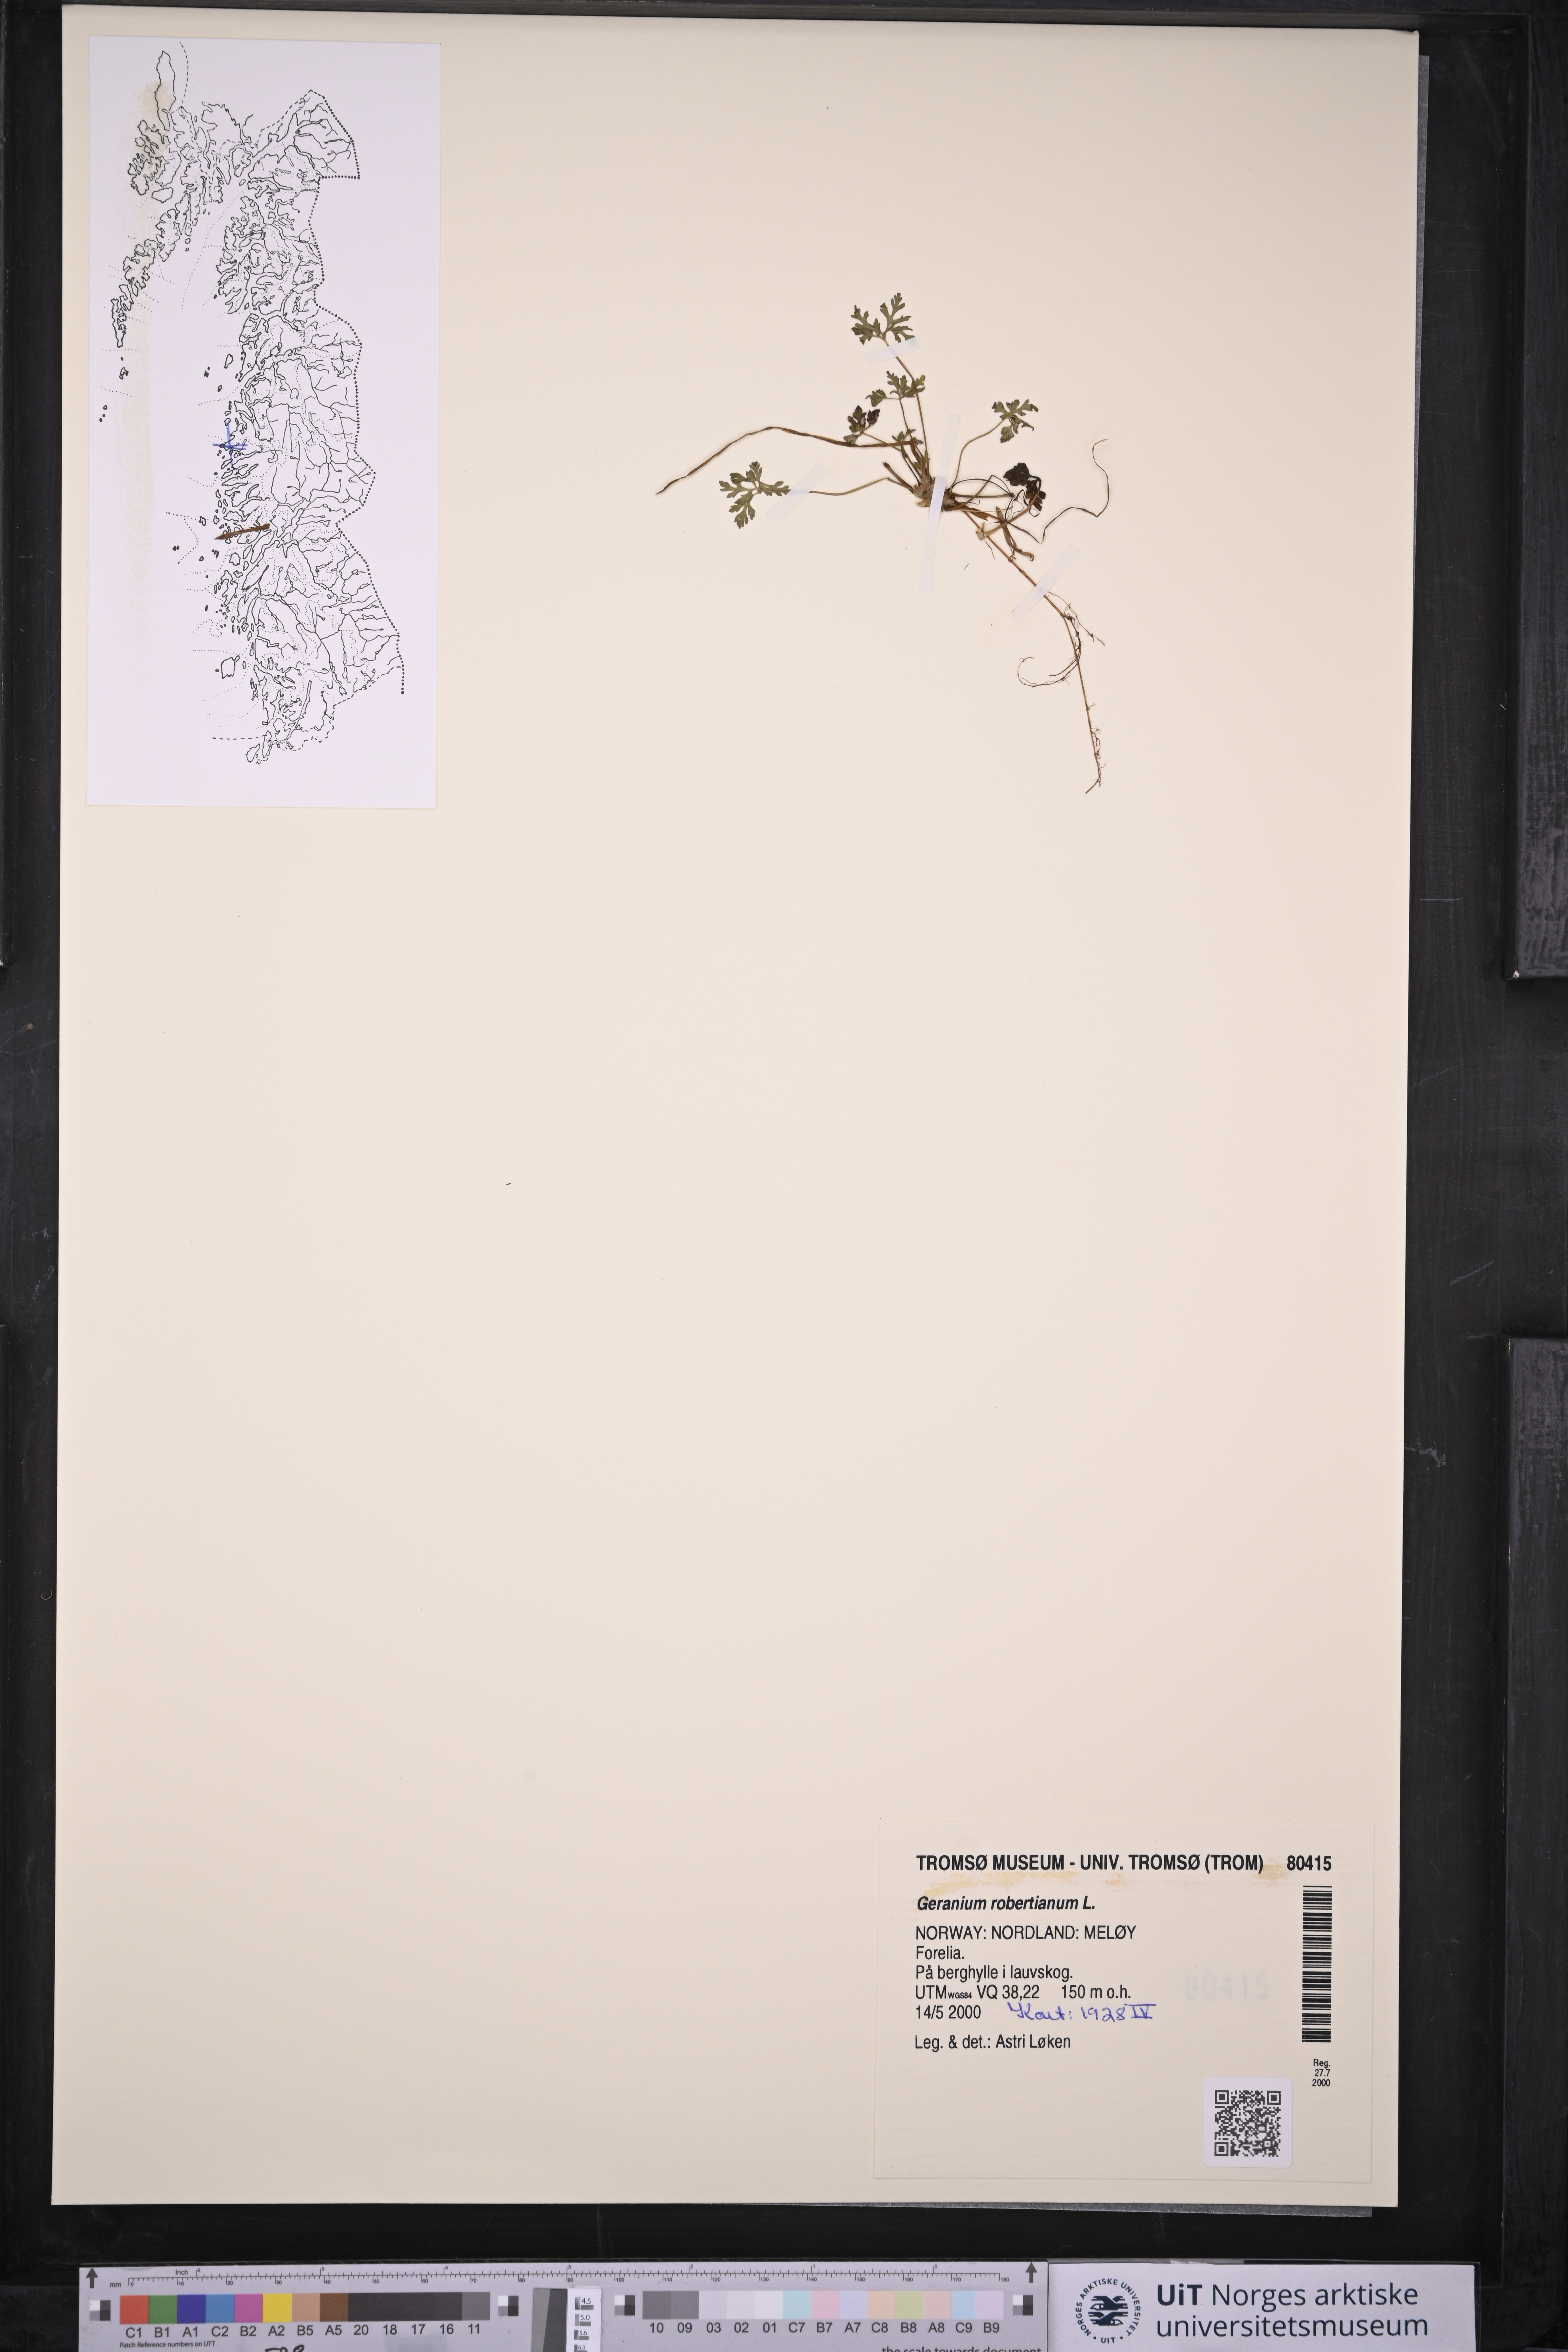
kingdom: Plantae
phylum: Tracheophyta
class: Magnoliopsida
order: Geraniales
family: Geraniaceae
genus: Geranium
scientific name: Geranium robertianum
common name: Herb-robert
